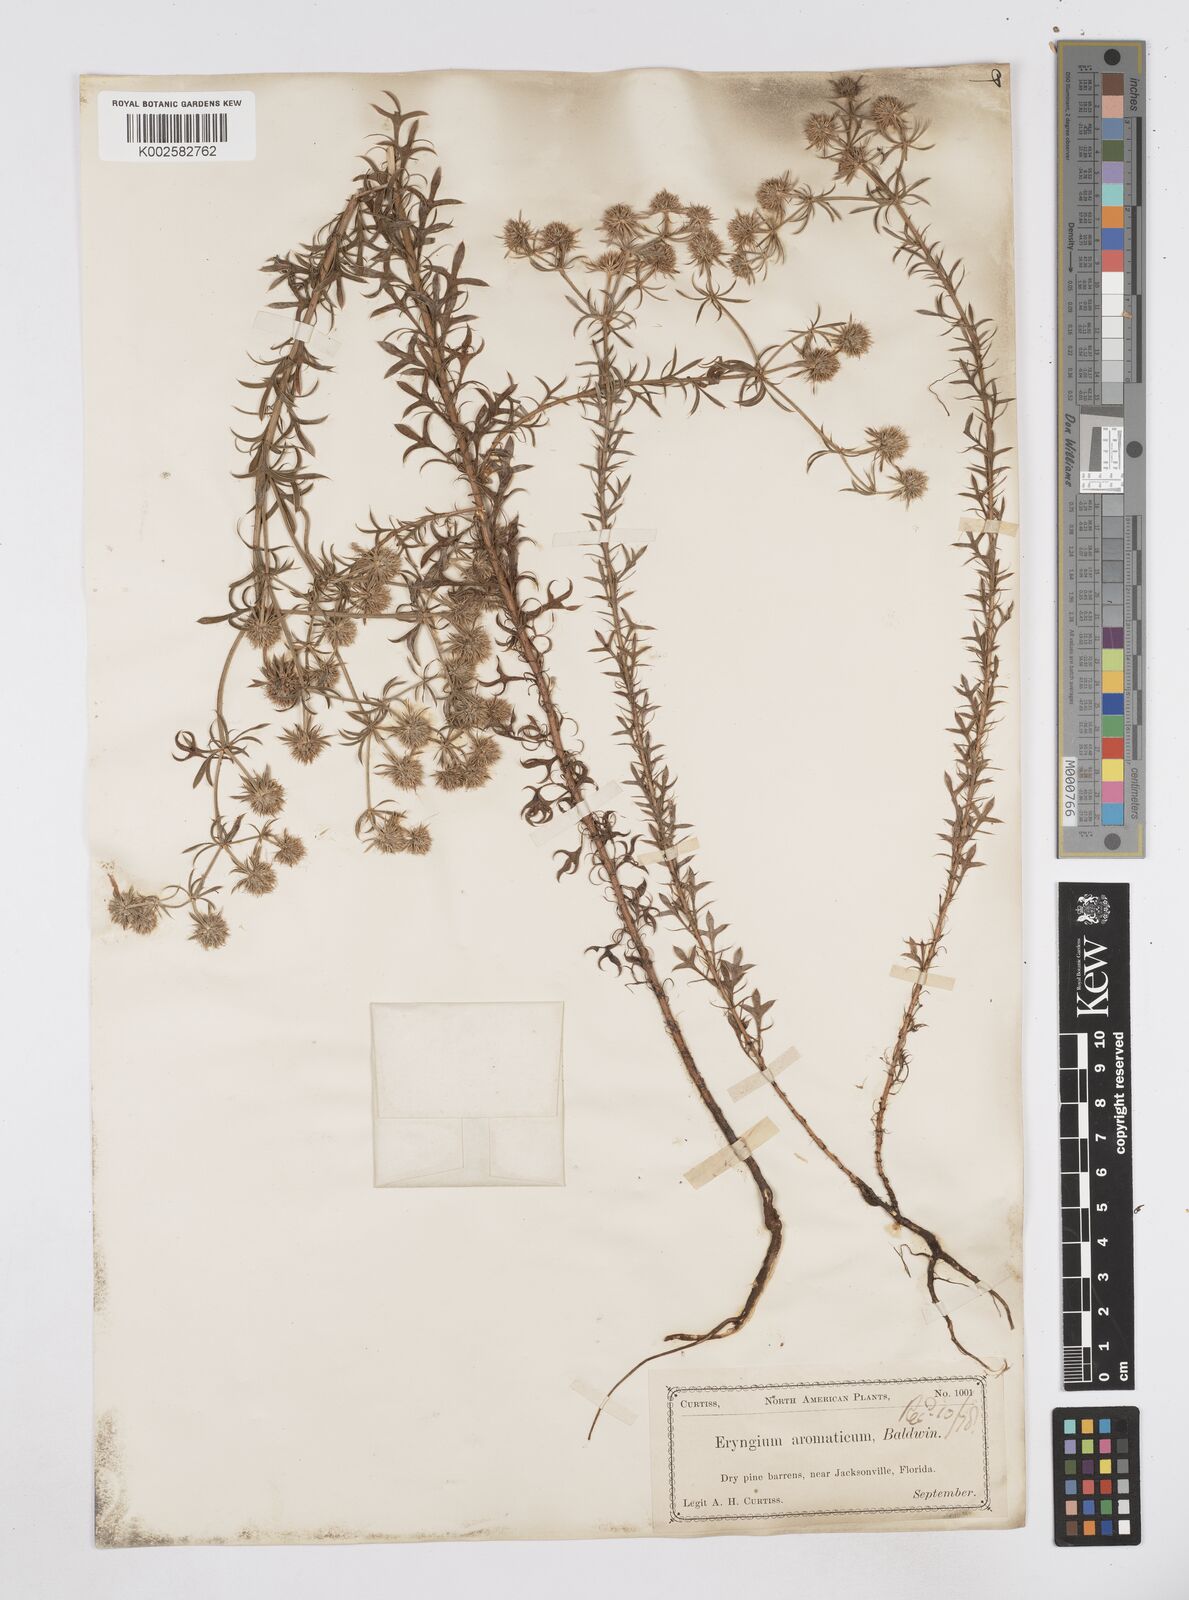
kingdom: Plantae
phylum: Tracheophyta
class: Magnoliopsida
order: Apiales
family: Apiaceae
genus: Eryngium
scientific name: Eryngium aromaticum
